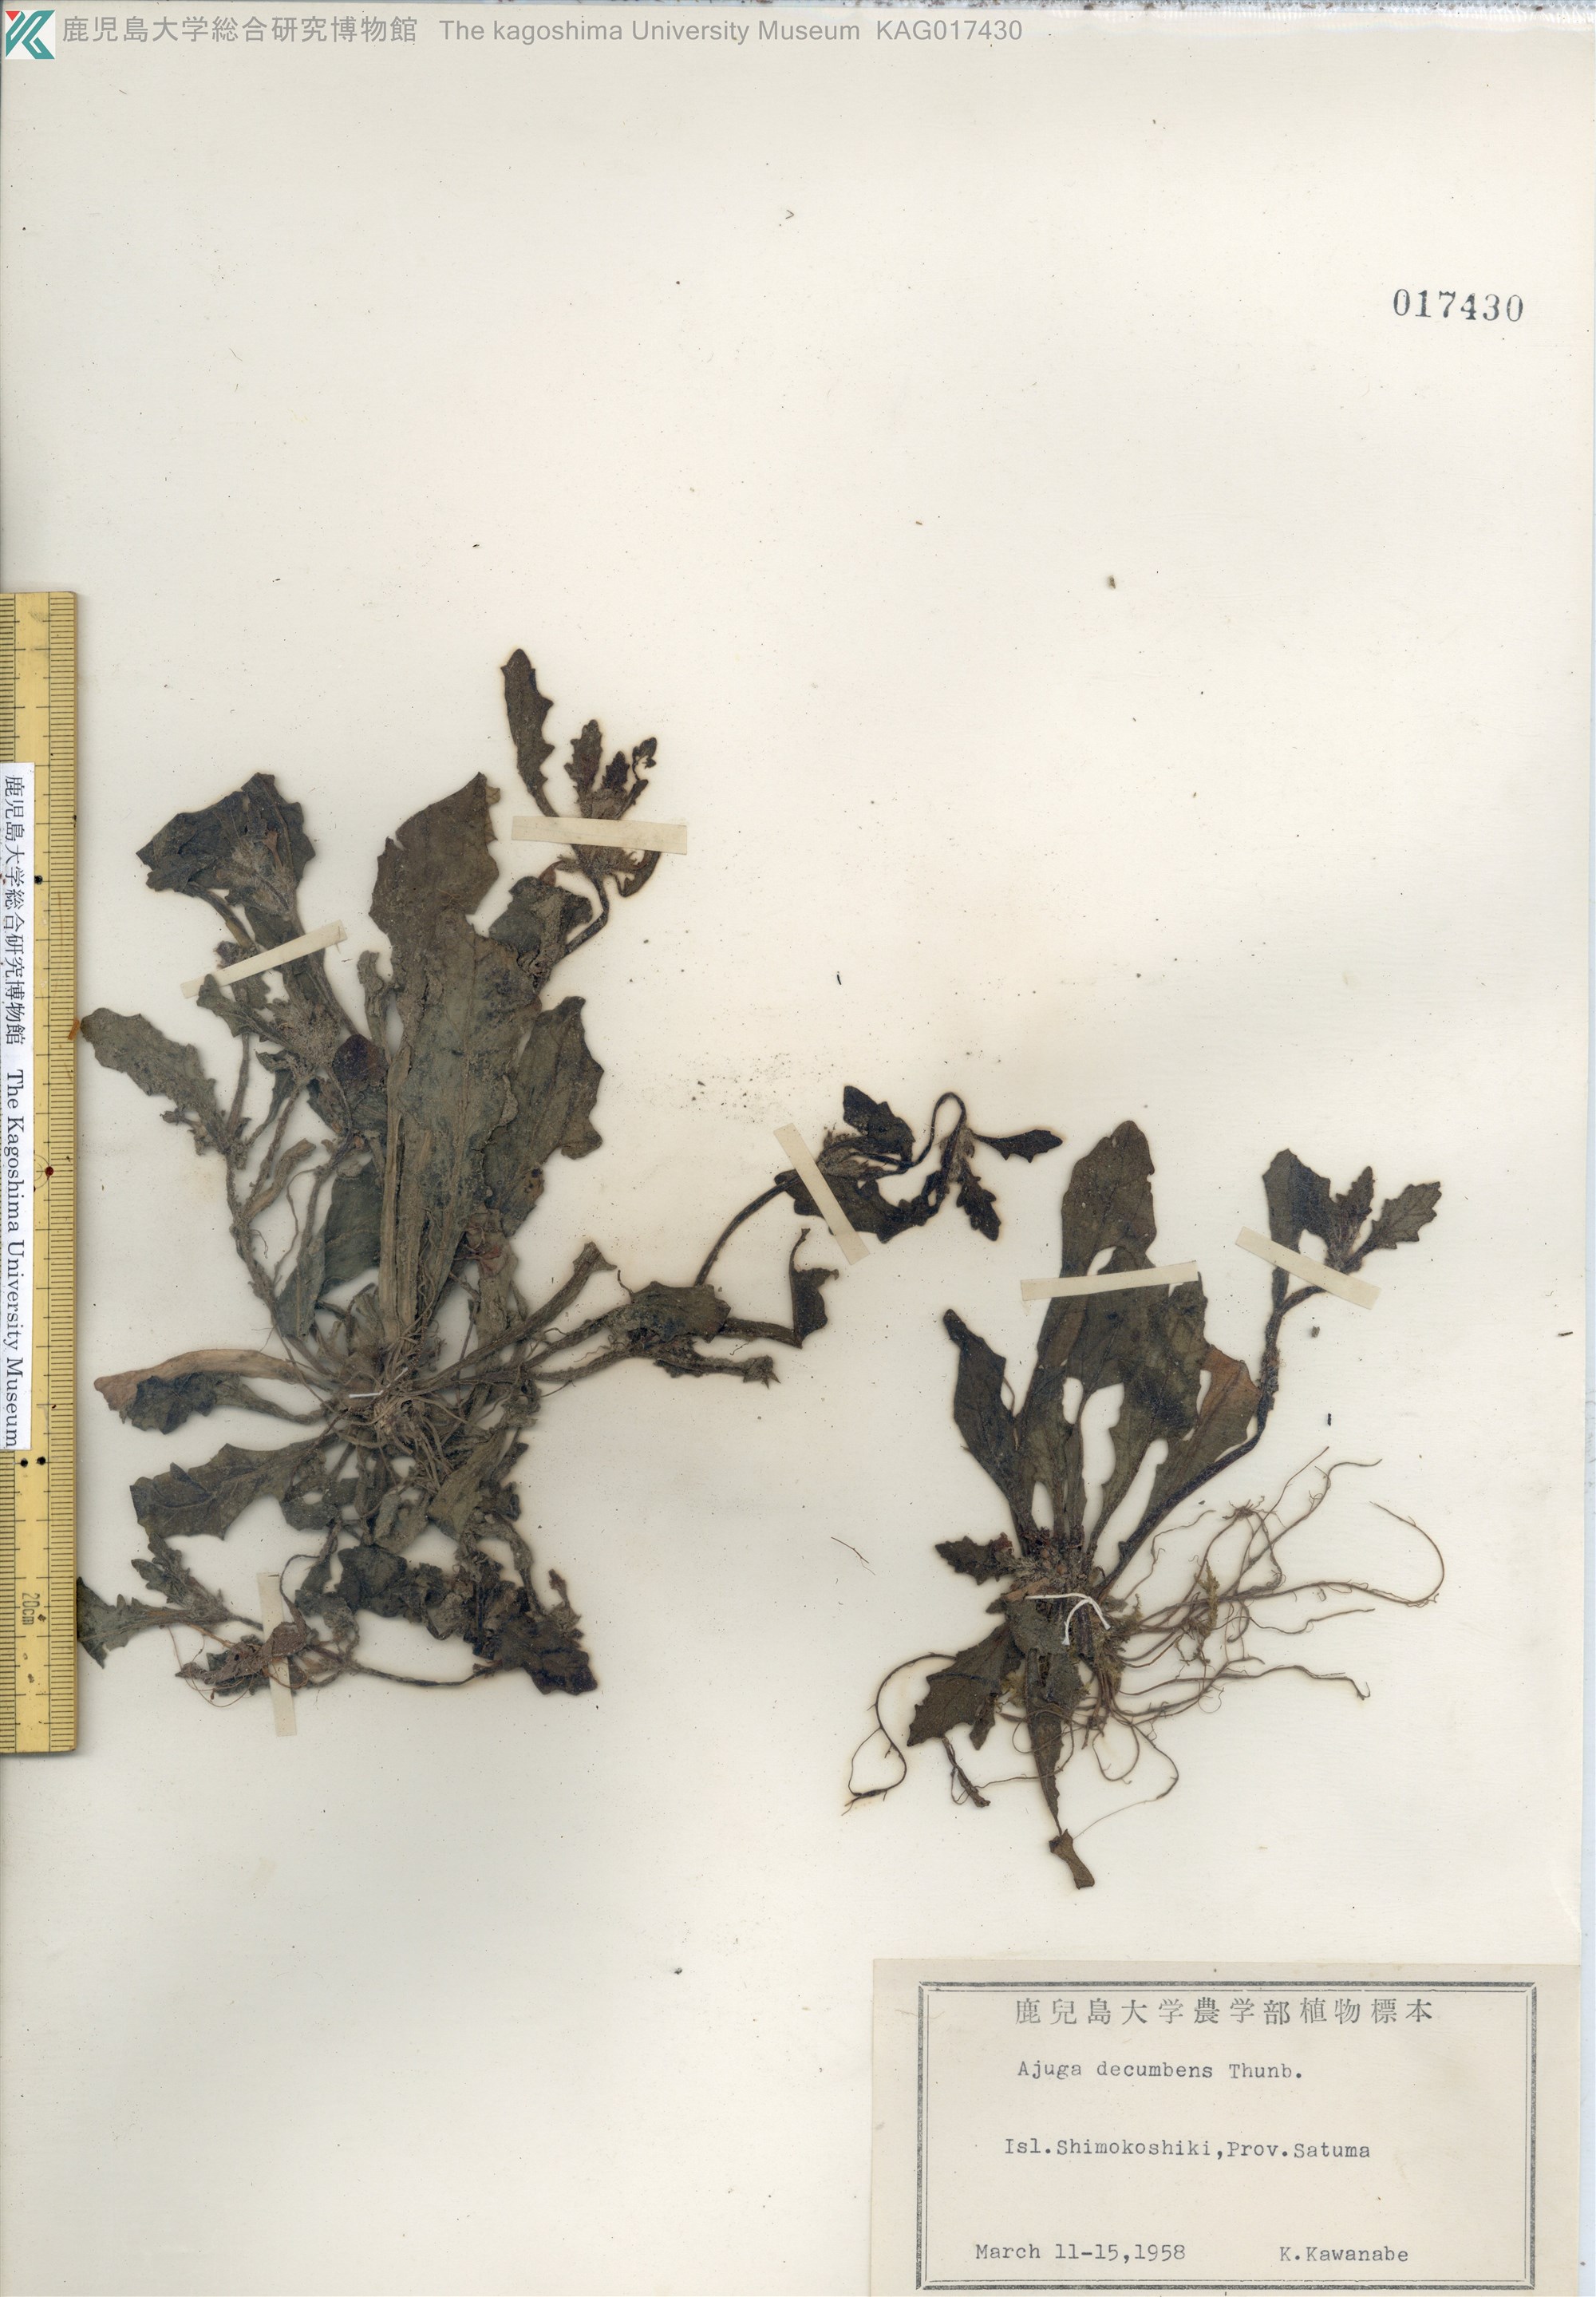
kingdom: Plantae
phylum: Tracheophyta
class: Magnoliopsida
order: Lamiales
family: Lamiaceae
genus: Ajuga
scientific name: Ajuga decumbens
